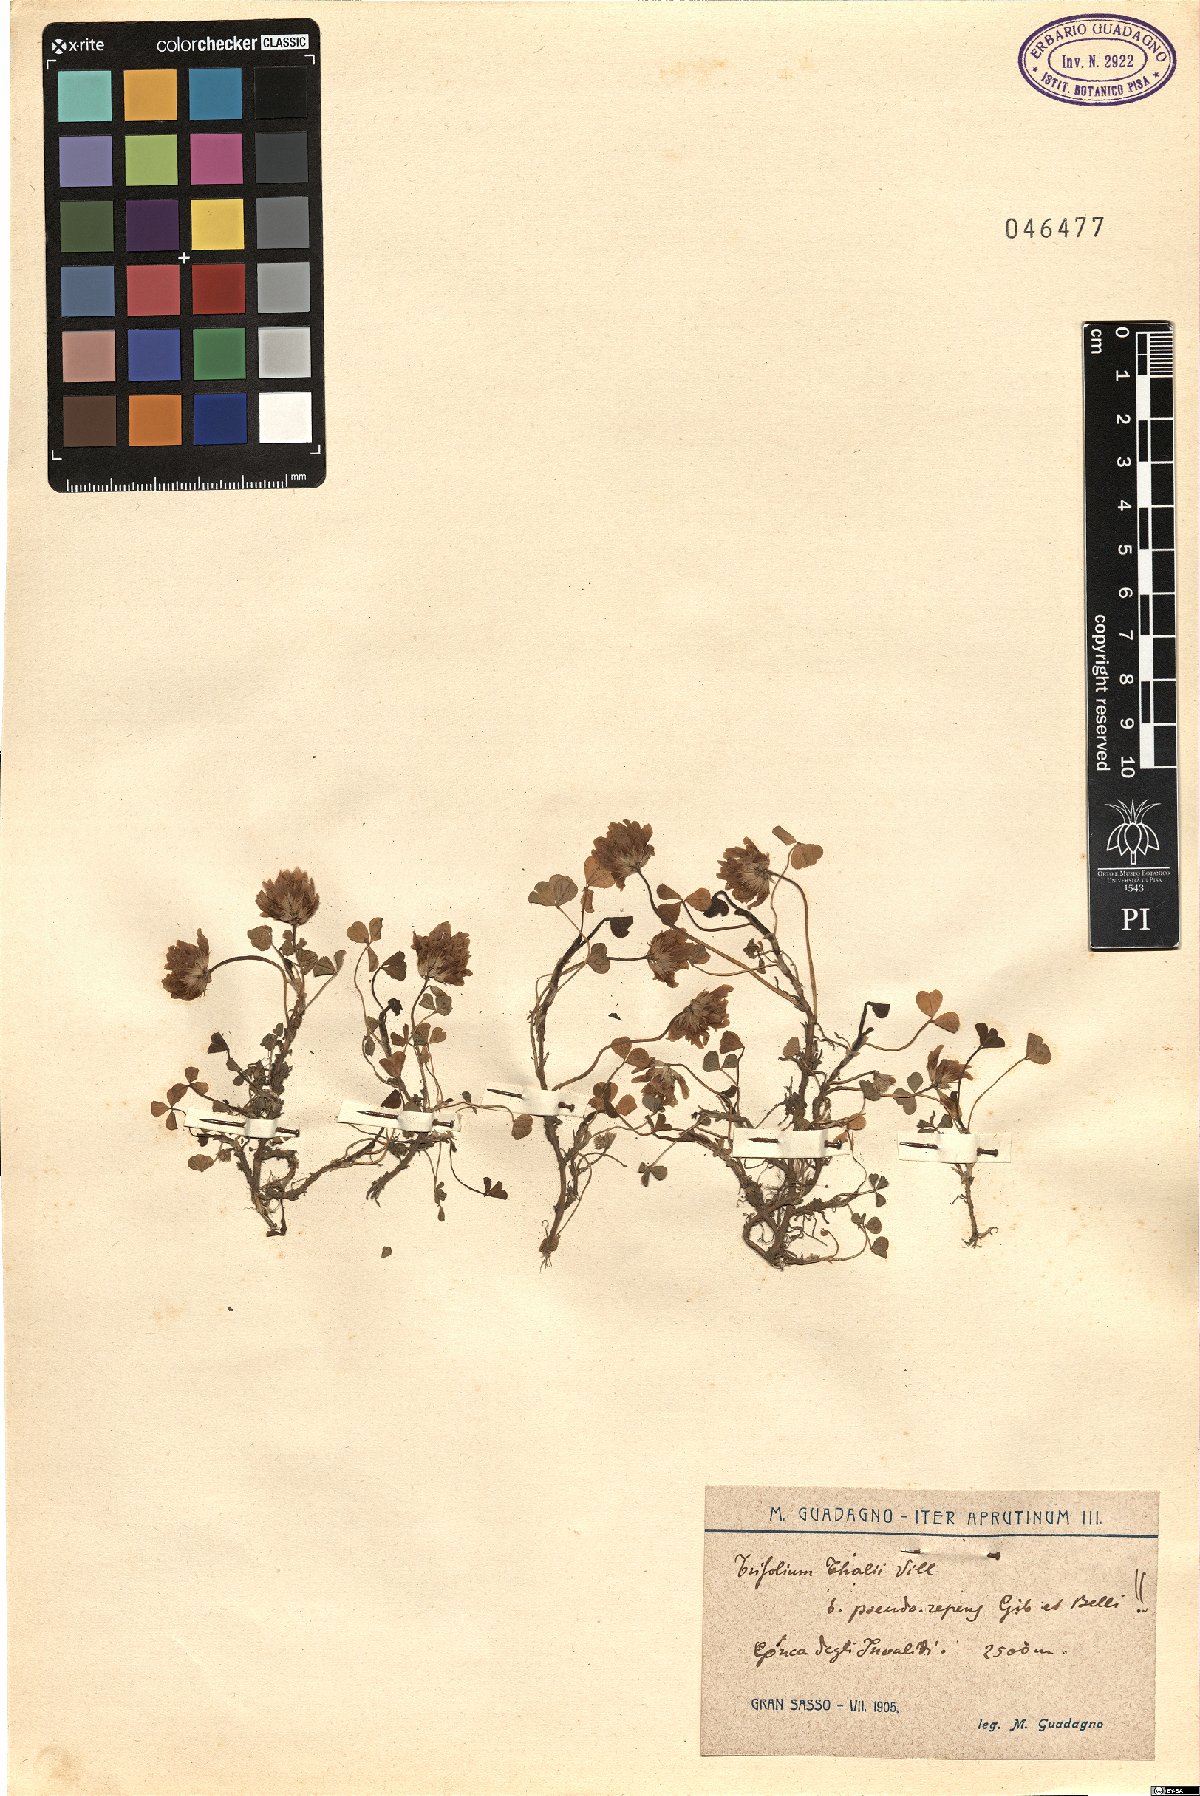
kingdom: Plantae
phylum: Tracheophyta
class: Magnoliopsida
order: Fabales
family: Fabaceae
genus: Trifolium
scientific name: Trifolium thalii
